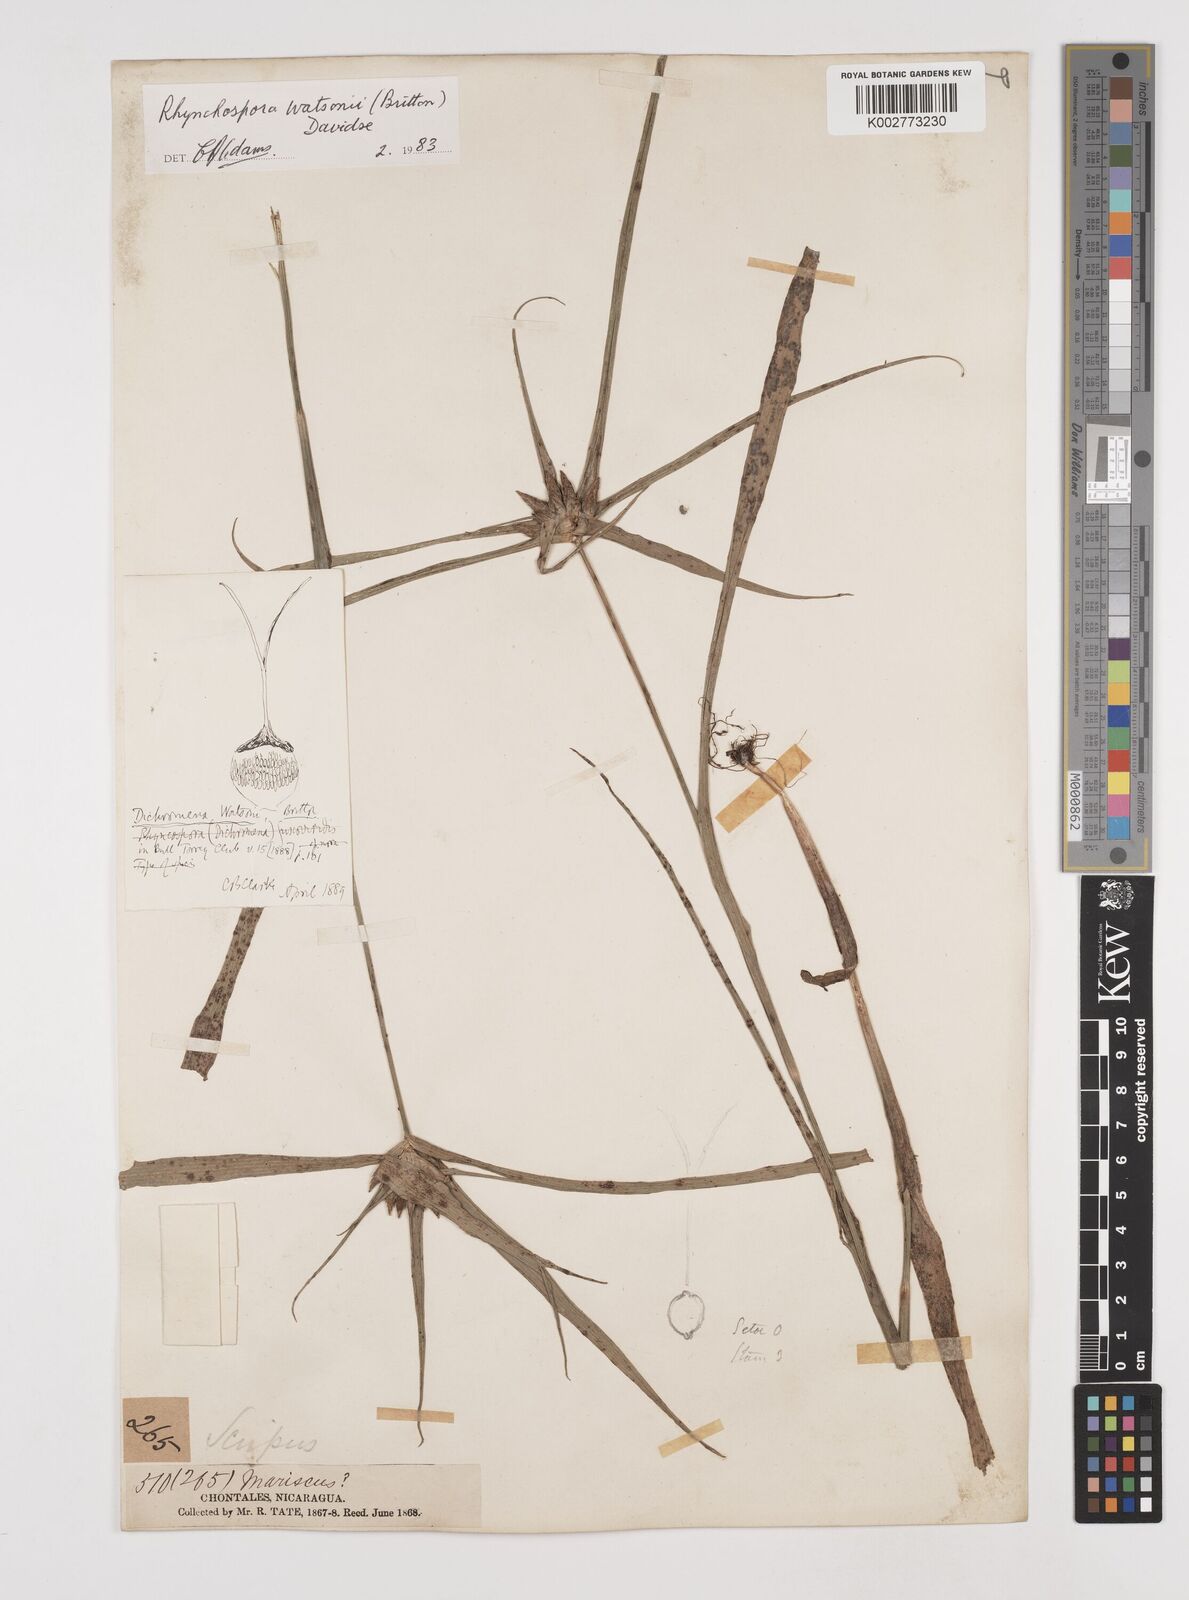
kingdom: Plantae
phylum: Tracheophyta
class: Liliopsida
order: Poales
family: Cyperaceae
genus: Rhynchospora
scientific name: Rhynchospora watsonii
